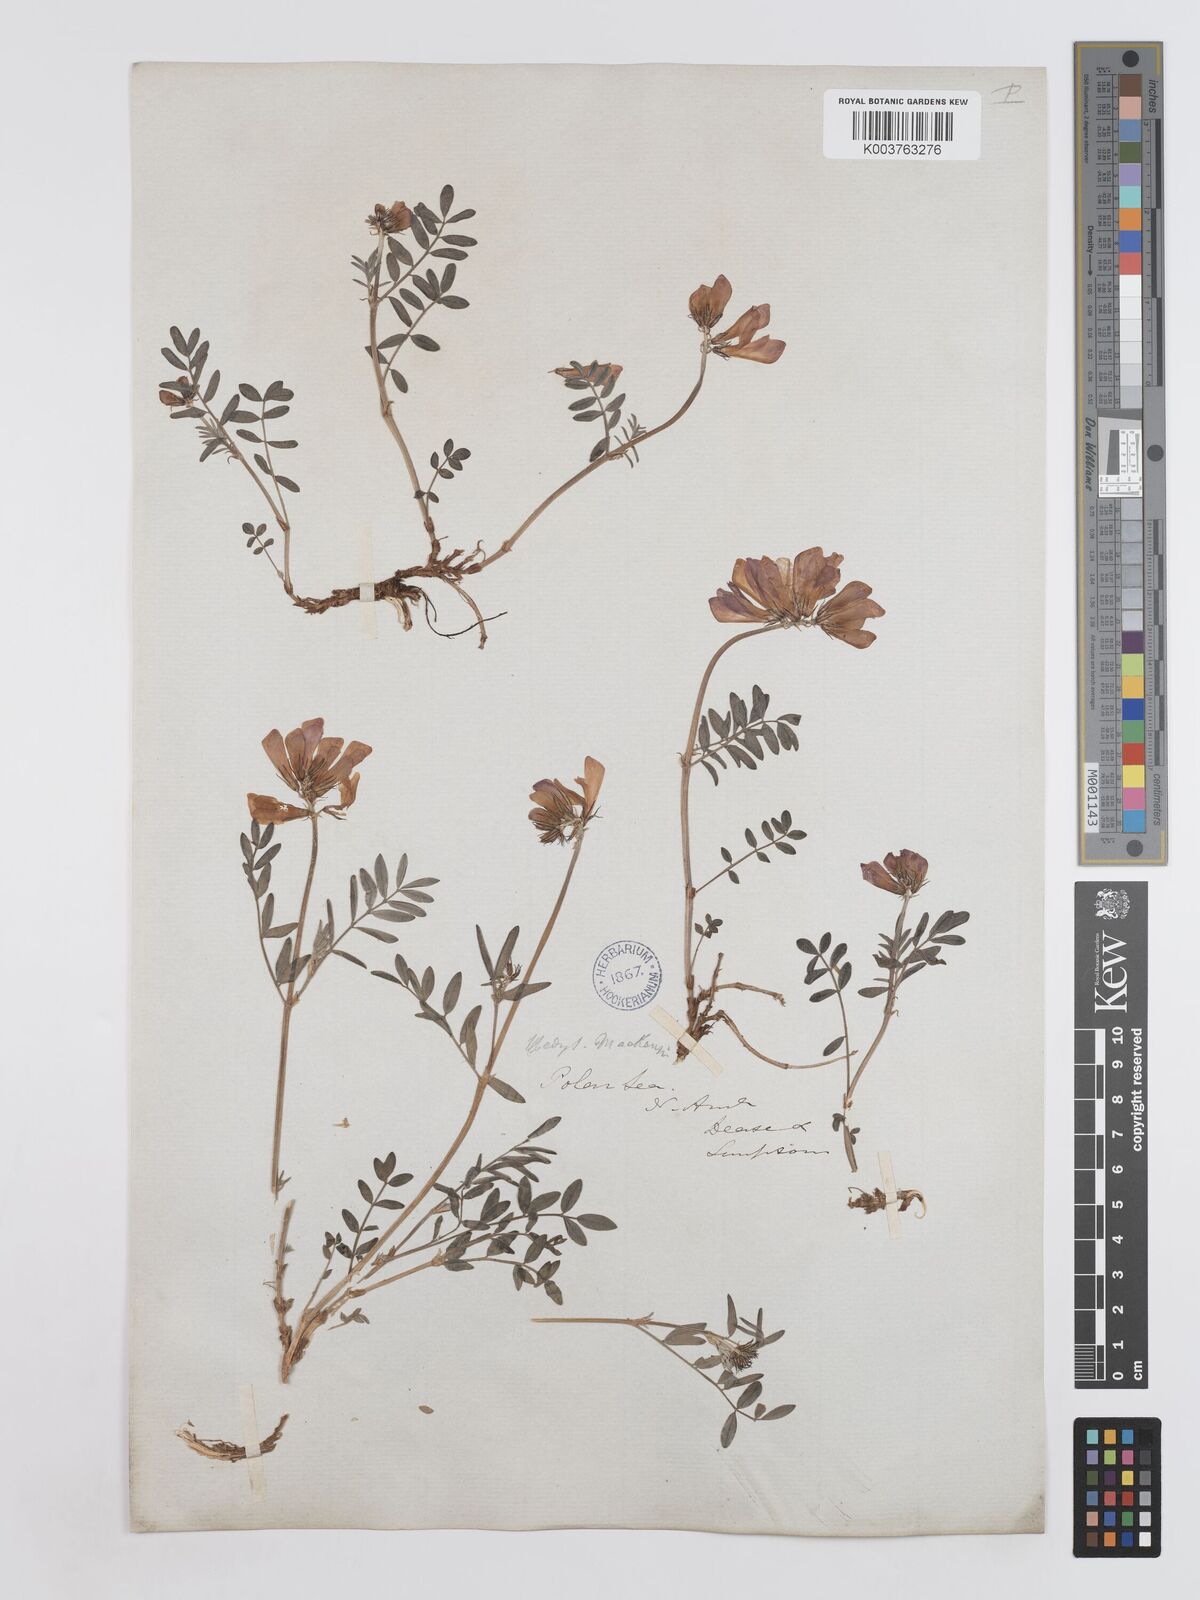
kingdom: Plantae
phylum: Tracheophyta
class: Magnoliopsida
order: Fabales
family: Fabaceae
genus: Hedysarum
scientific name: Hedysarum boreale
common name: Northern sweet-vetch
